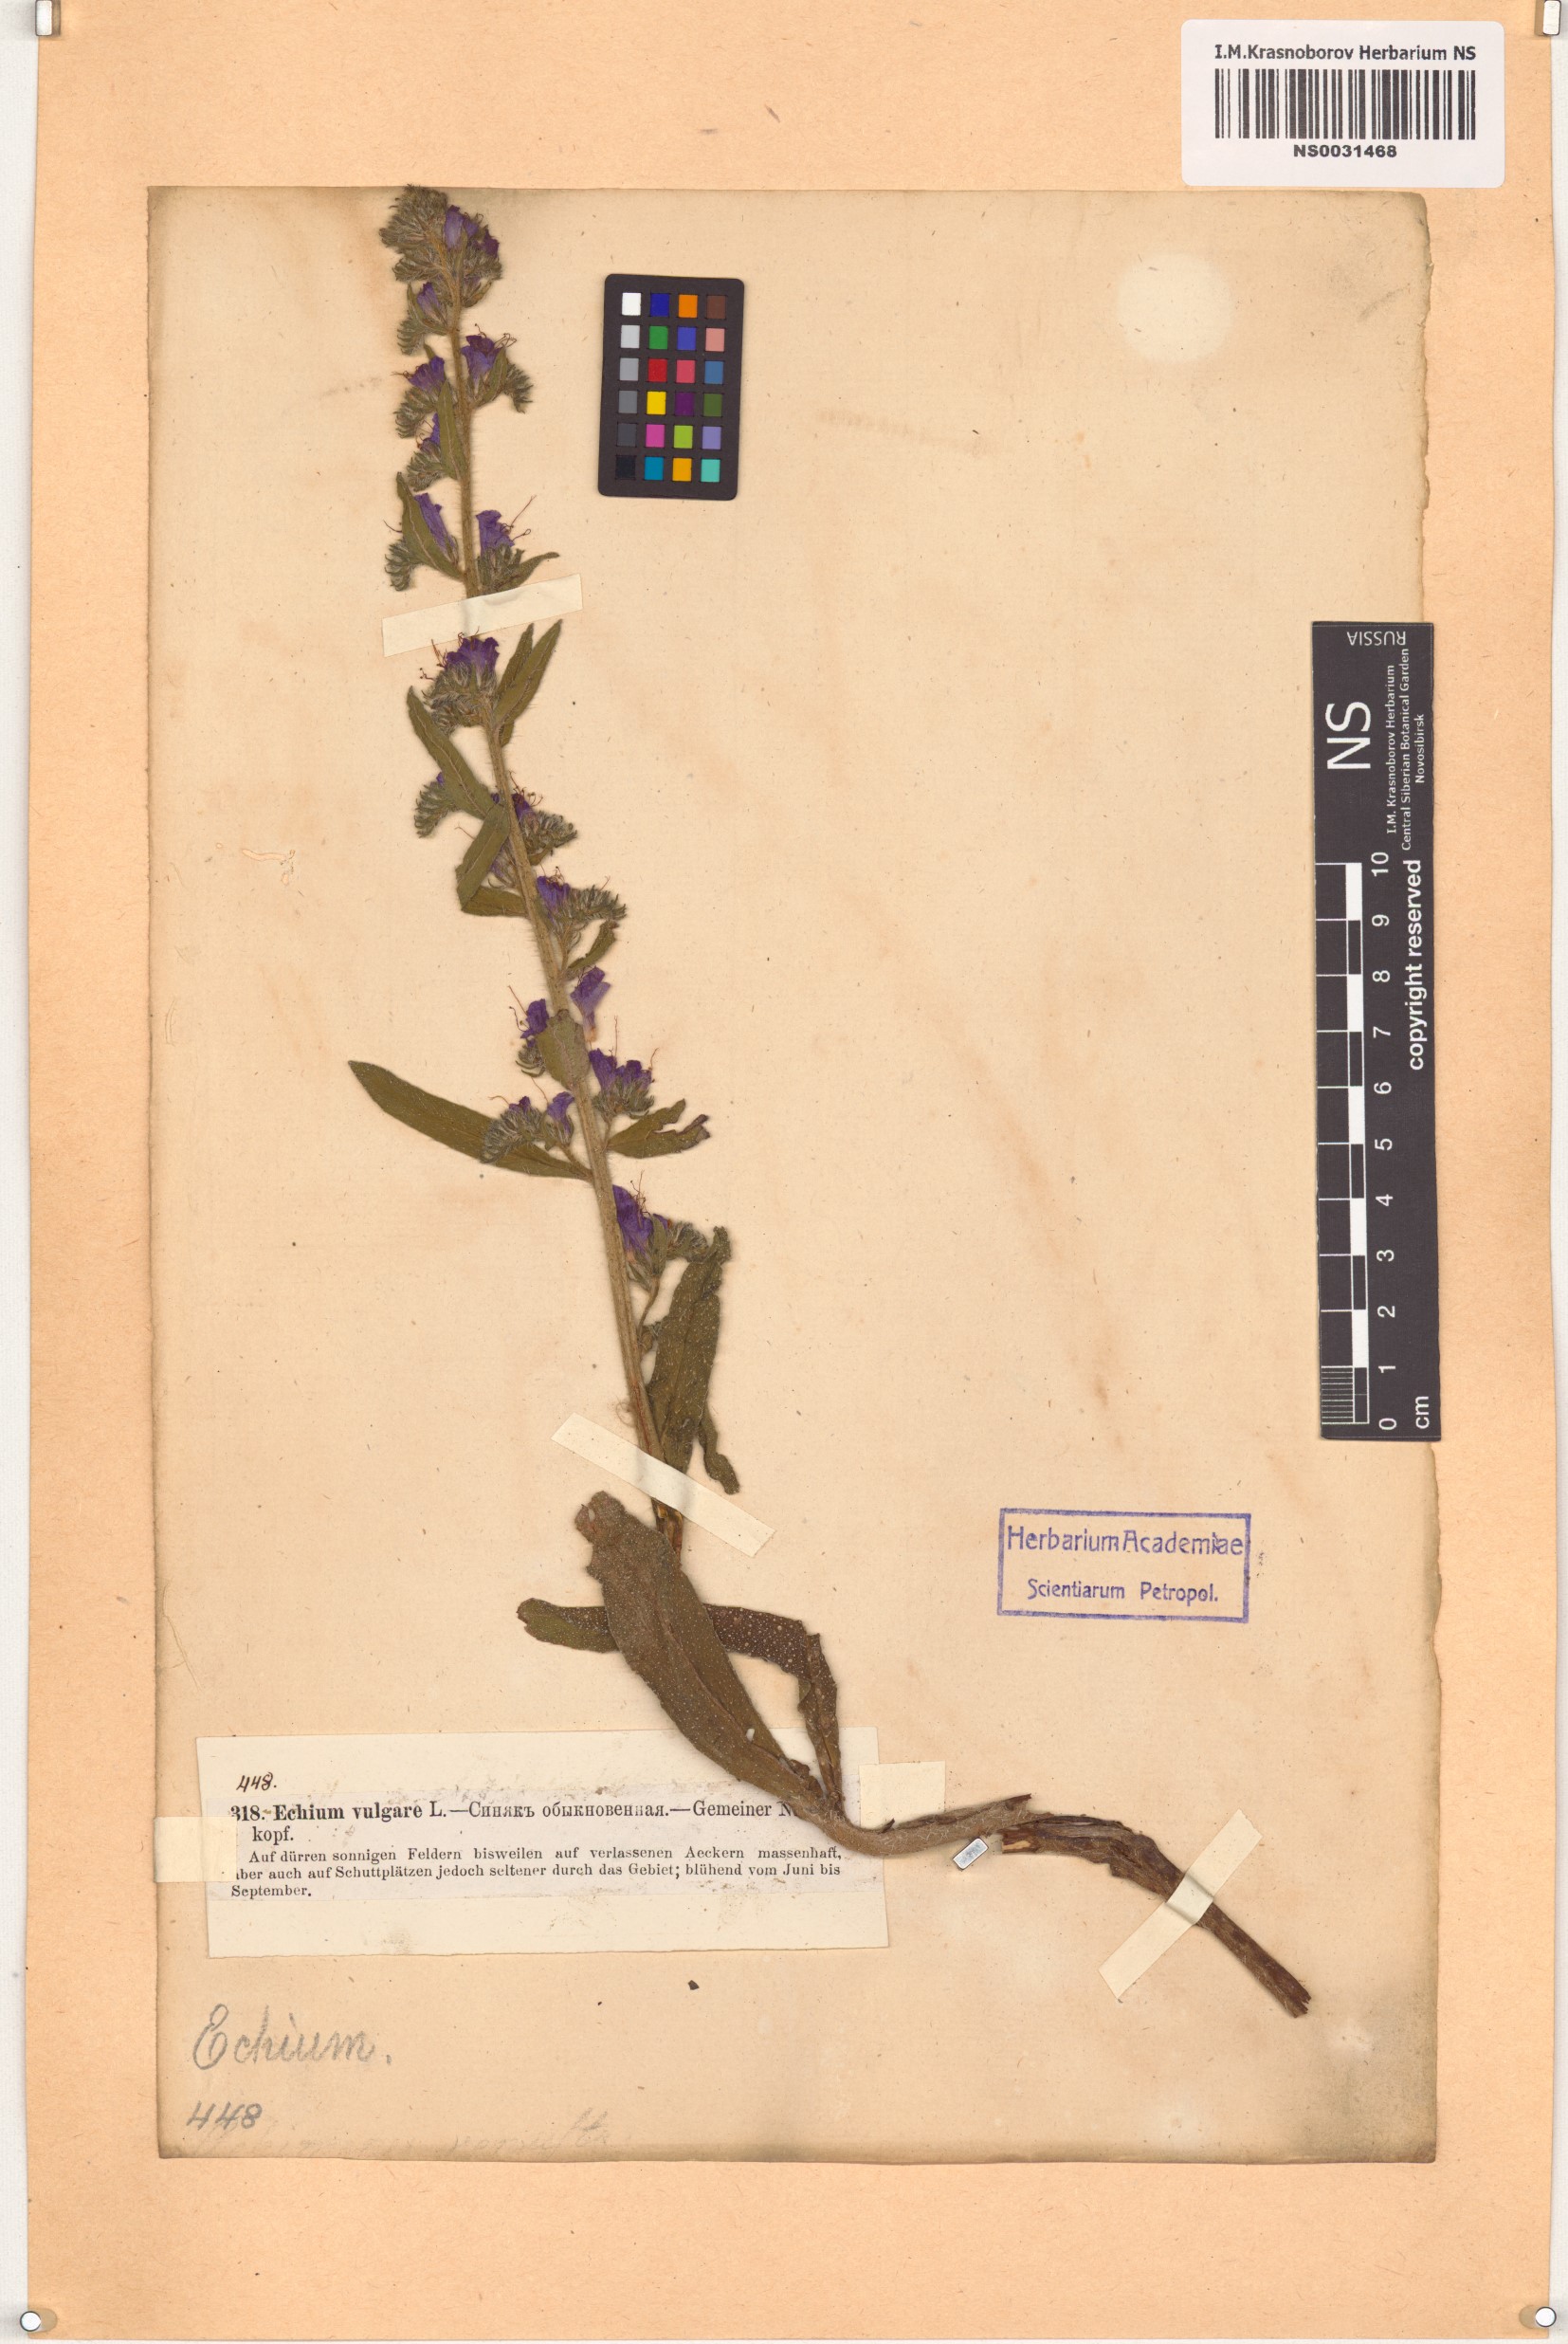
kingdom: Plantae
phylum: Tracheophyta
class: Magnoliopsida
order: Boraginales
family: Boraginaceae
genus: Echium
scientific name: Echium vulgare
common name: Common viper's bugloss
